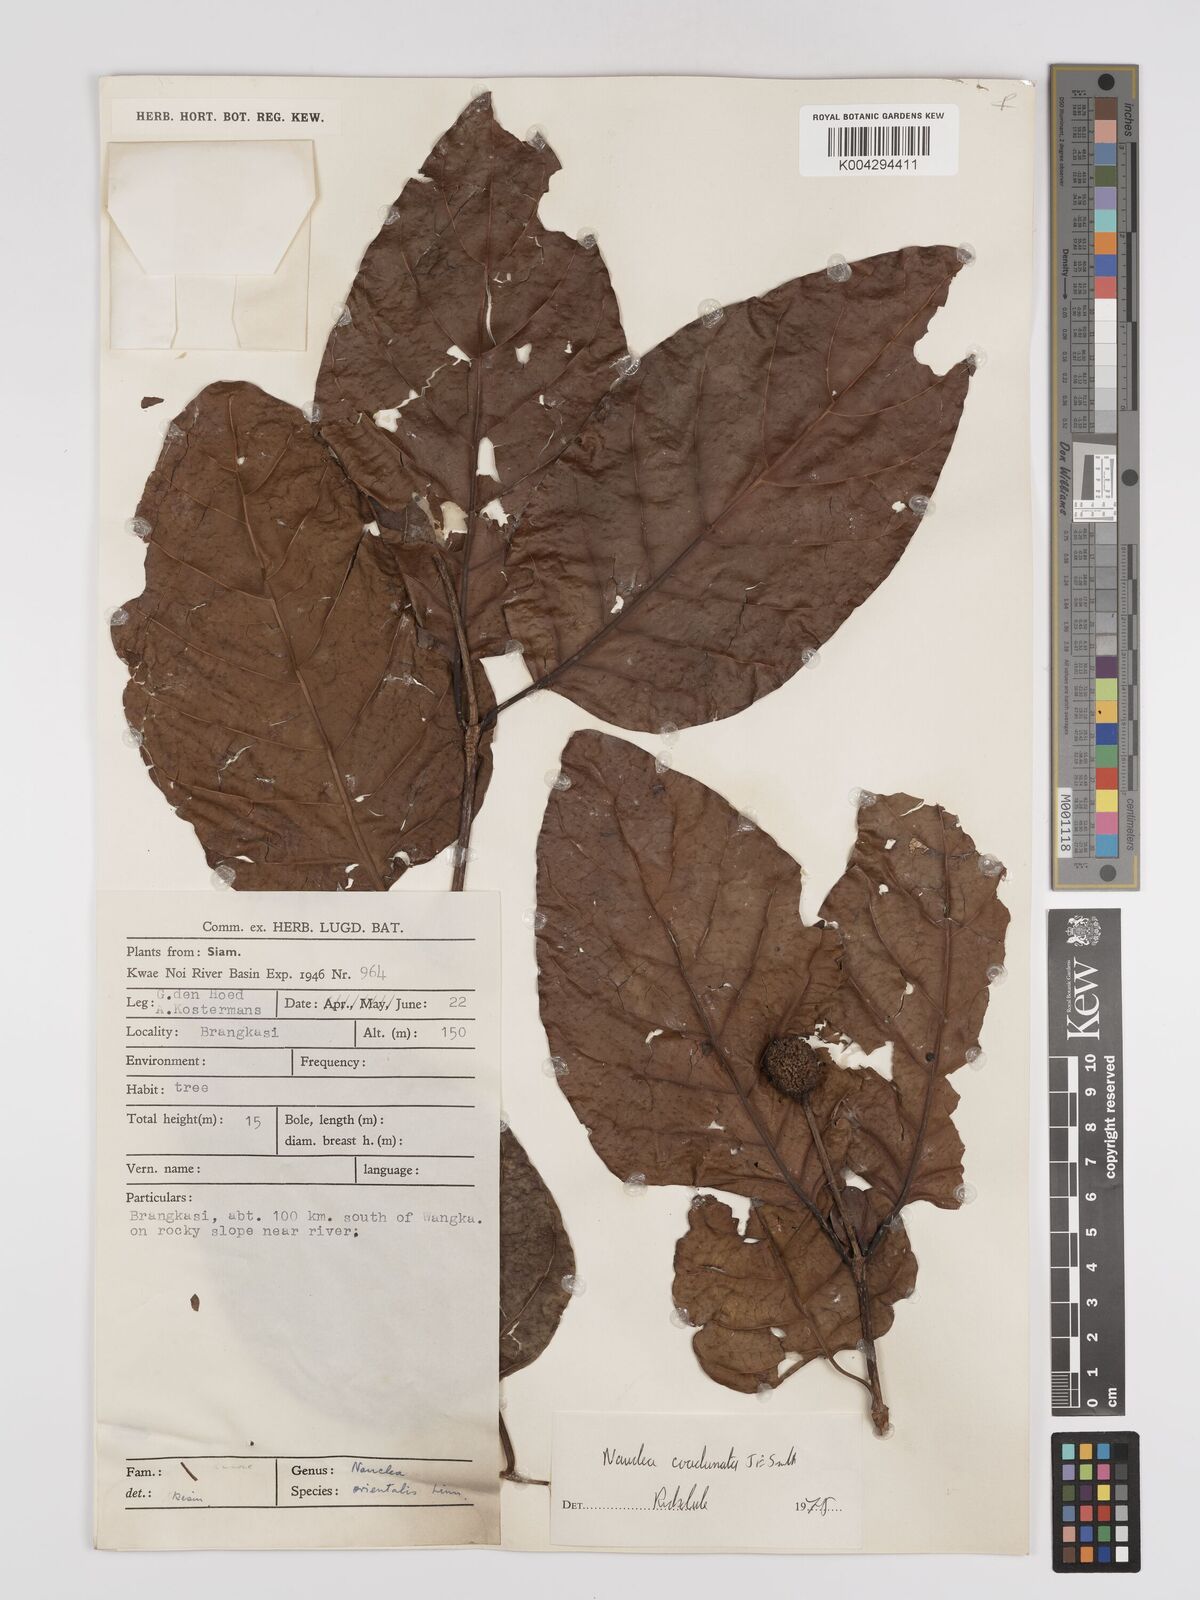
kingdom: Plantae
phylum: Tracheophyta
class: Magnoliopsida
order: Gentianales
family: Rubiaceae
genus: Nauclea
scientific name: Nauclea orientalis
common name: Leichhardt-pine
